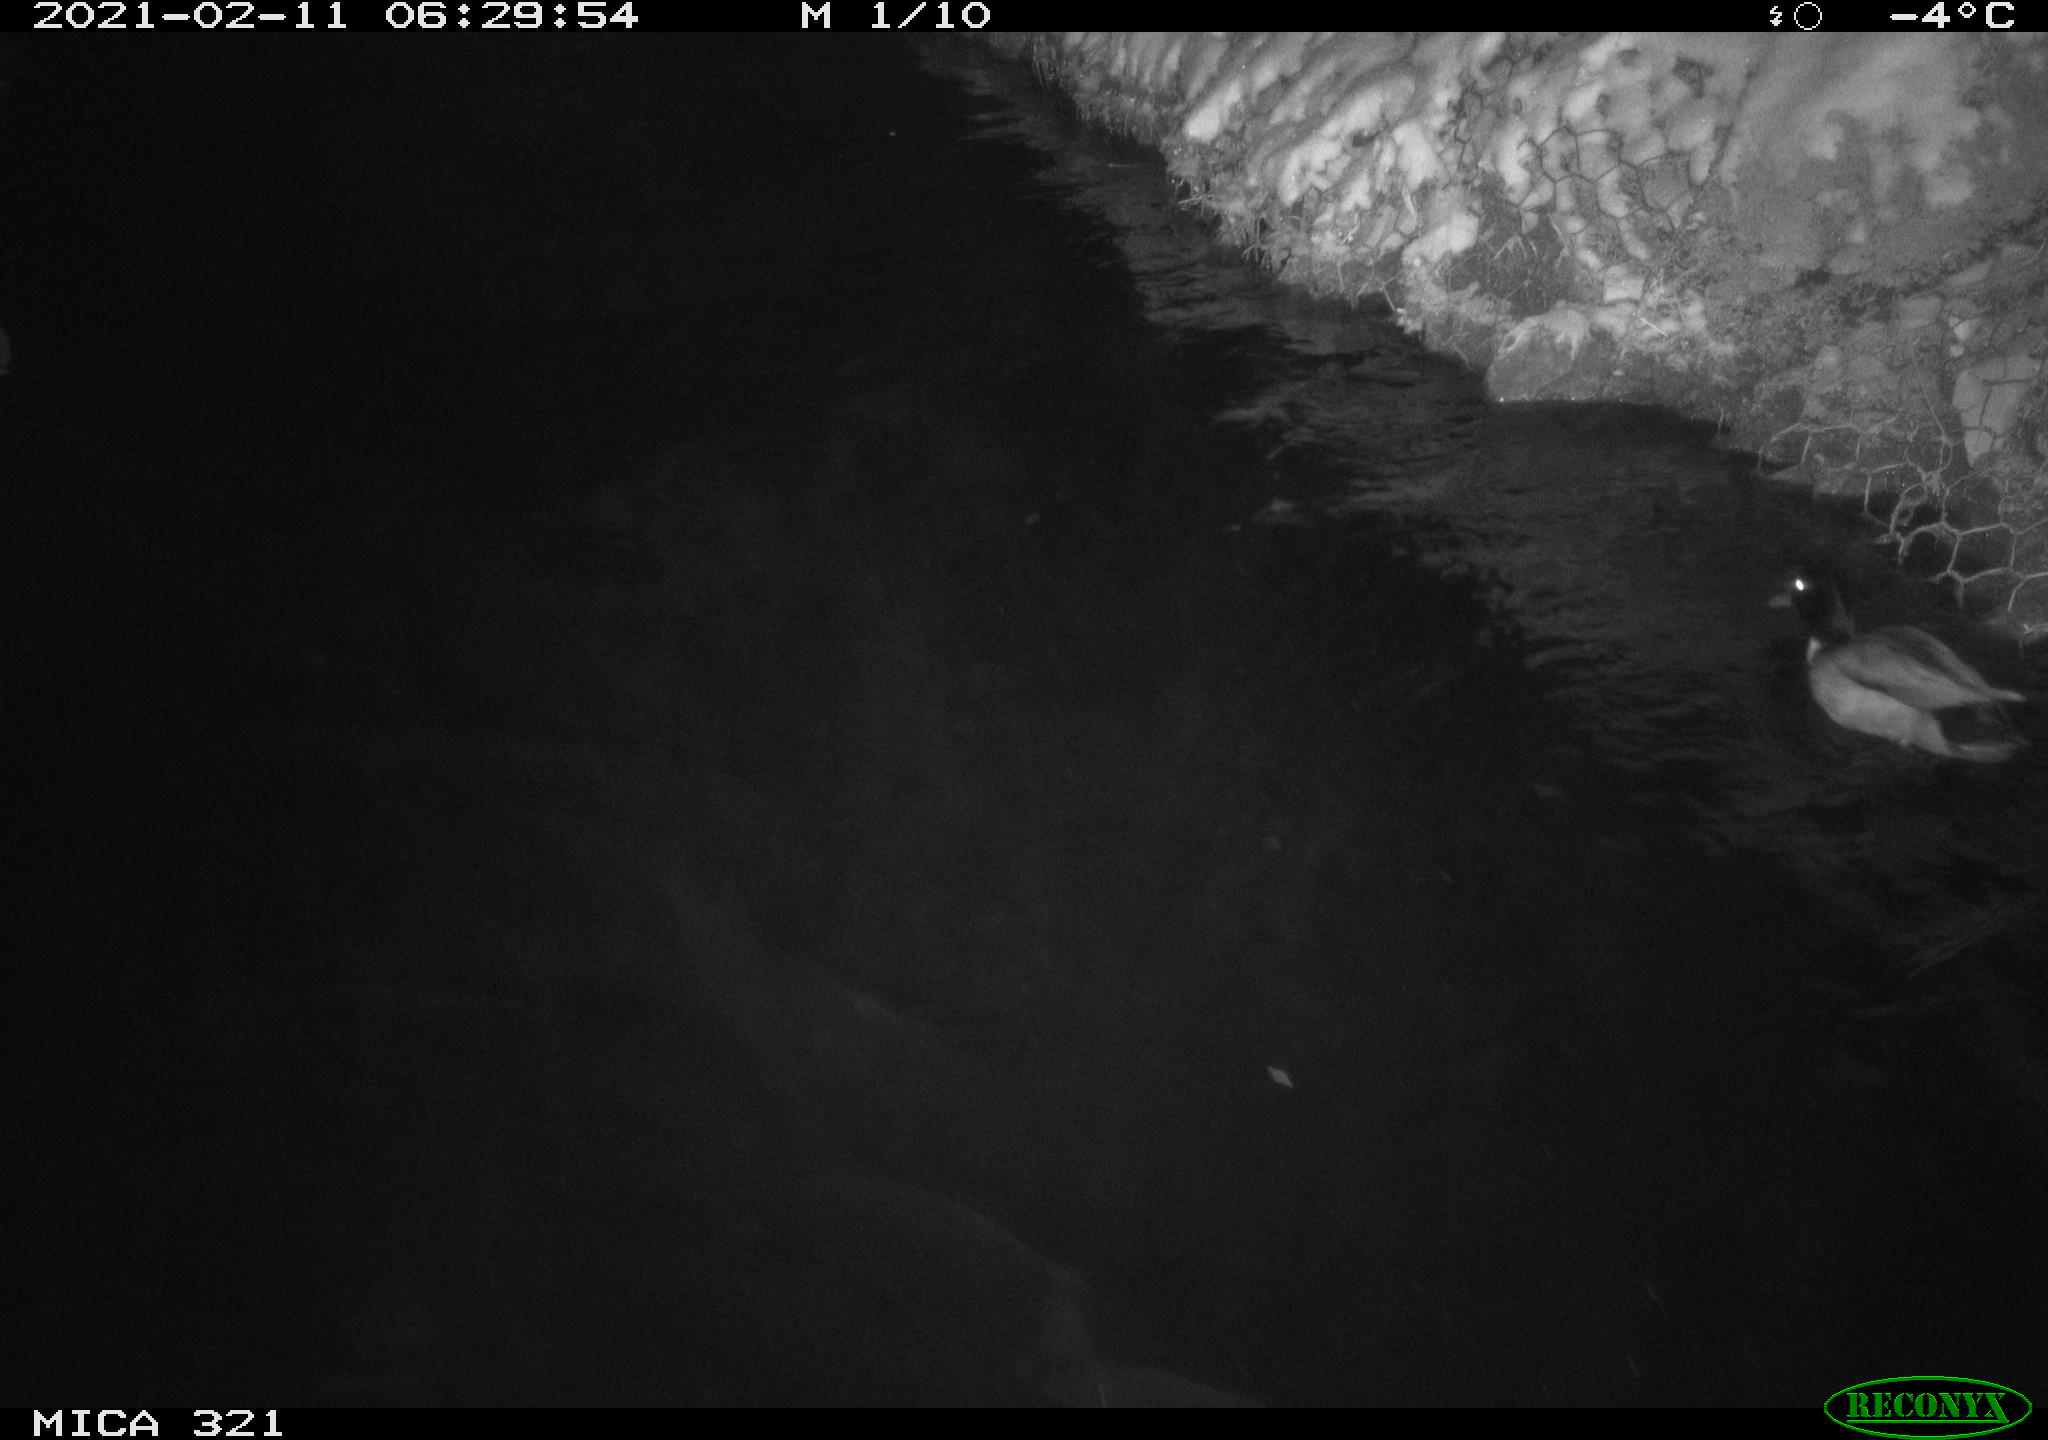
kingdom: Animalia
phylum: Chordata
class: Aves
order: Anseriformes
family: Anatidae
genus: Anas
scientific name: Anas platyrhynchos
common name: Mallard
